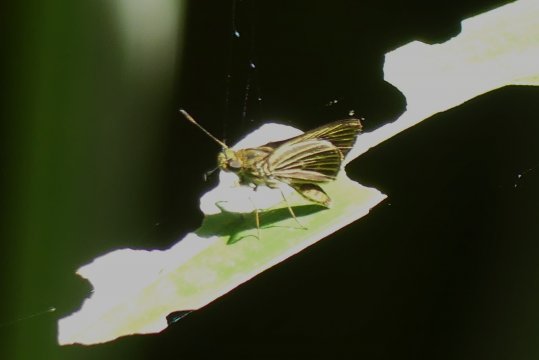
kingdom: Animalia
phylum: Arthropoda
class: Insecta
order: Lepidoptera
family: Hesperiidae
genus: Parphorus
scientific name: Parphorus decora
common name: Decora Skipper
